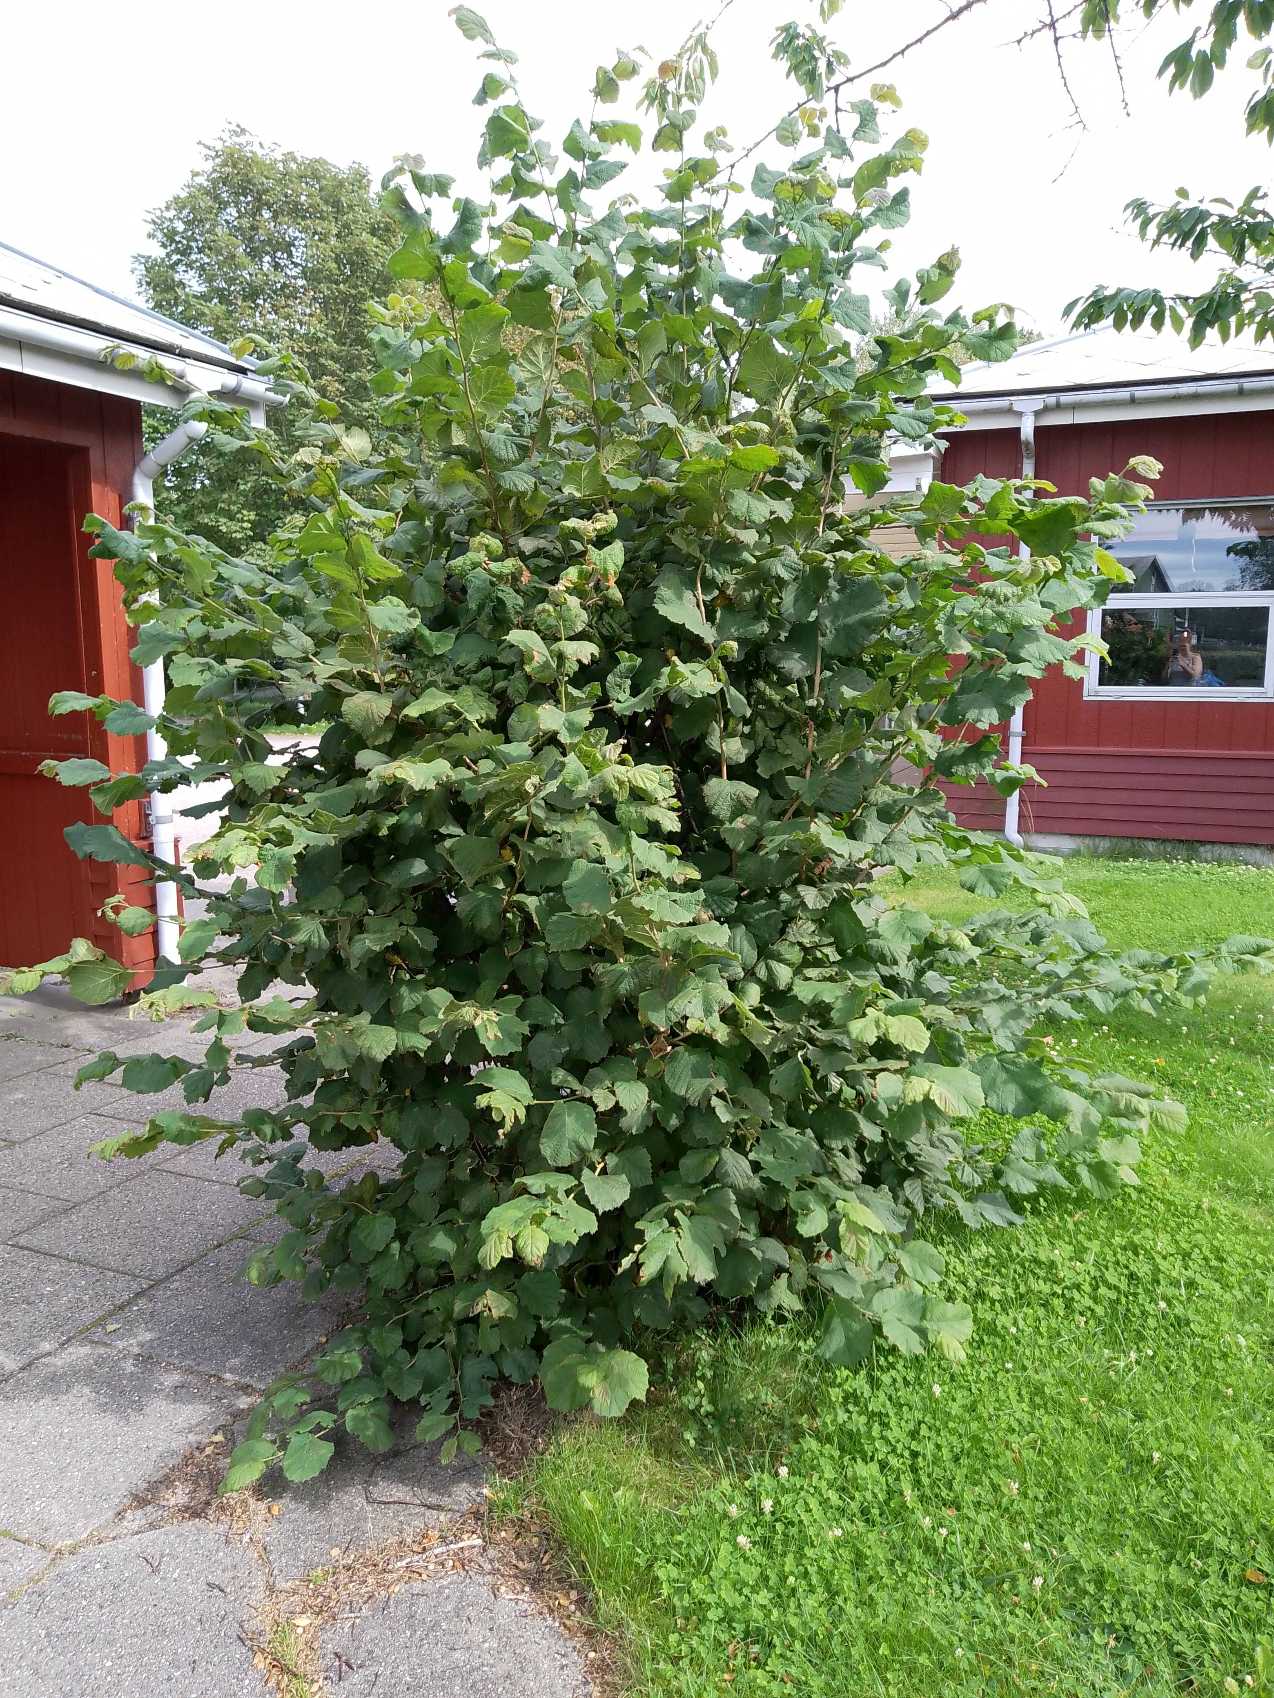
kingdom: Plantae
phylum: Tracheophyta
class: Magnoliopsida
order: Fagales
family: Betulaceae
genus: Corylus
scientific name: Corylus avellana
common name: Hassel
